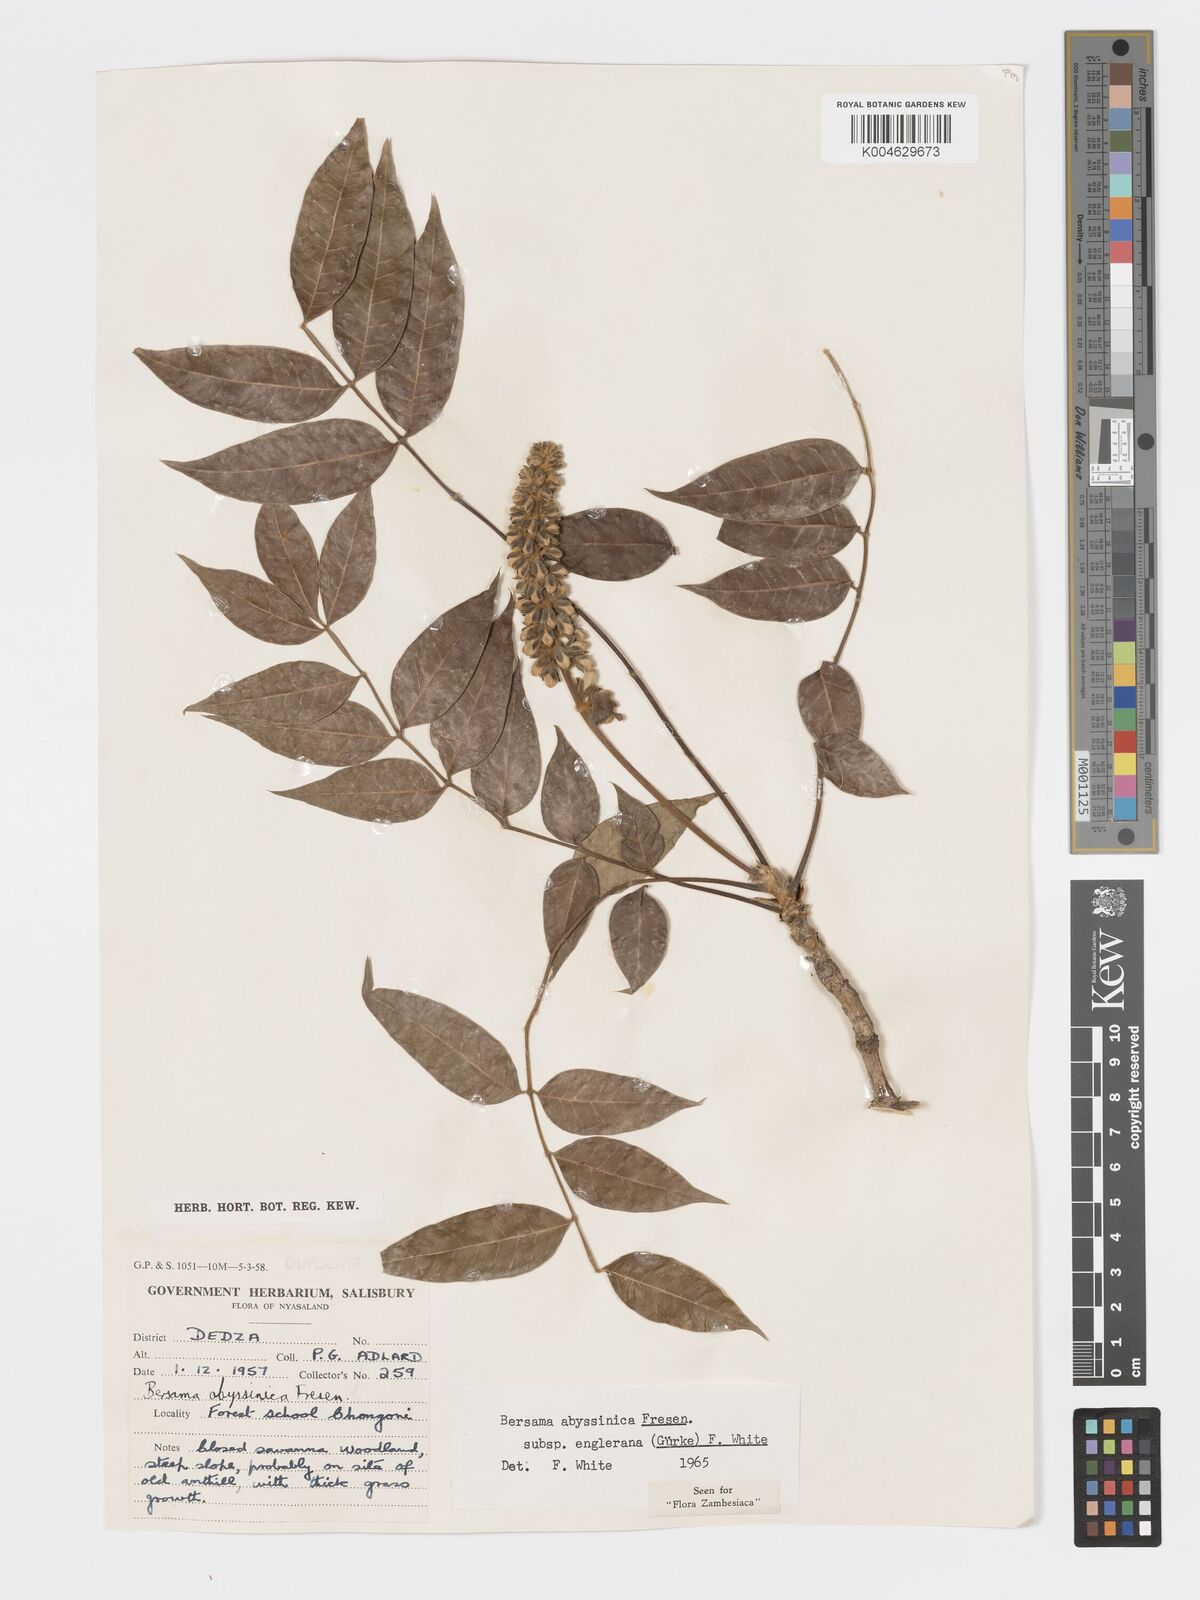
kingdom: Plantae
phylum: Tracheophyta
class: Magnoliopsida
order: Geraniales
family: Melianthaceae
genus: Bersama
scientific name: Bersama abyssinica
